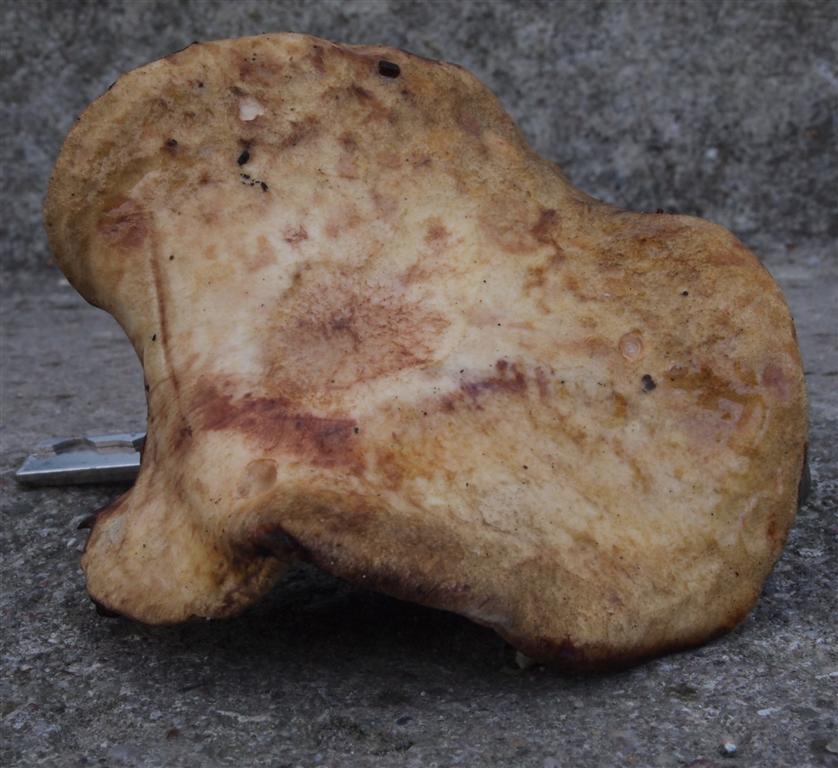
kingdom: Fungi
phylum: Basidiomycota
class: Agaricomycetes
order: Boletales
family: Paxillaceae
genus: Gyrodon
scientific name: Gyrodon lividus
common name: ellerørhat
